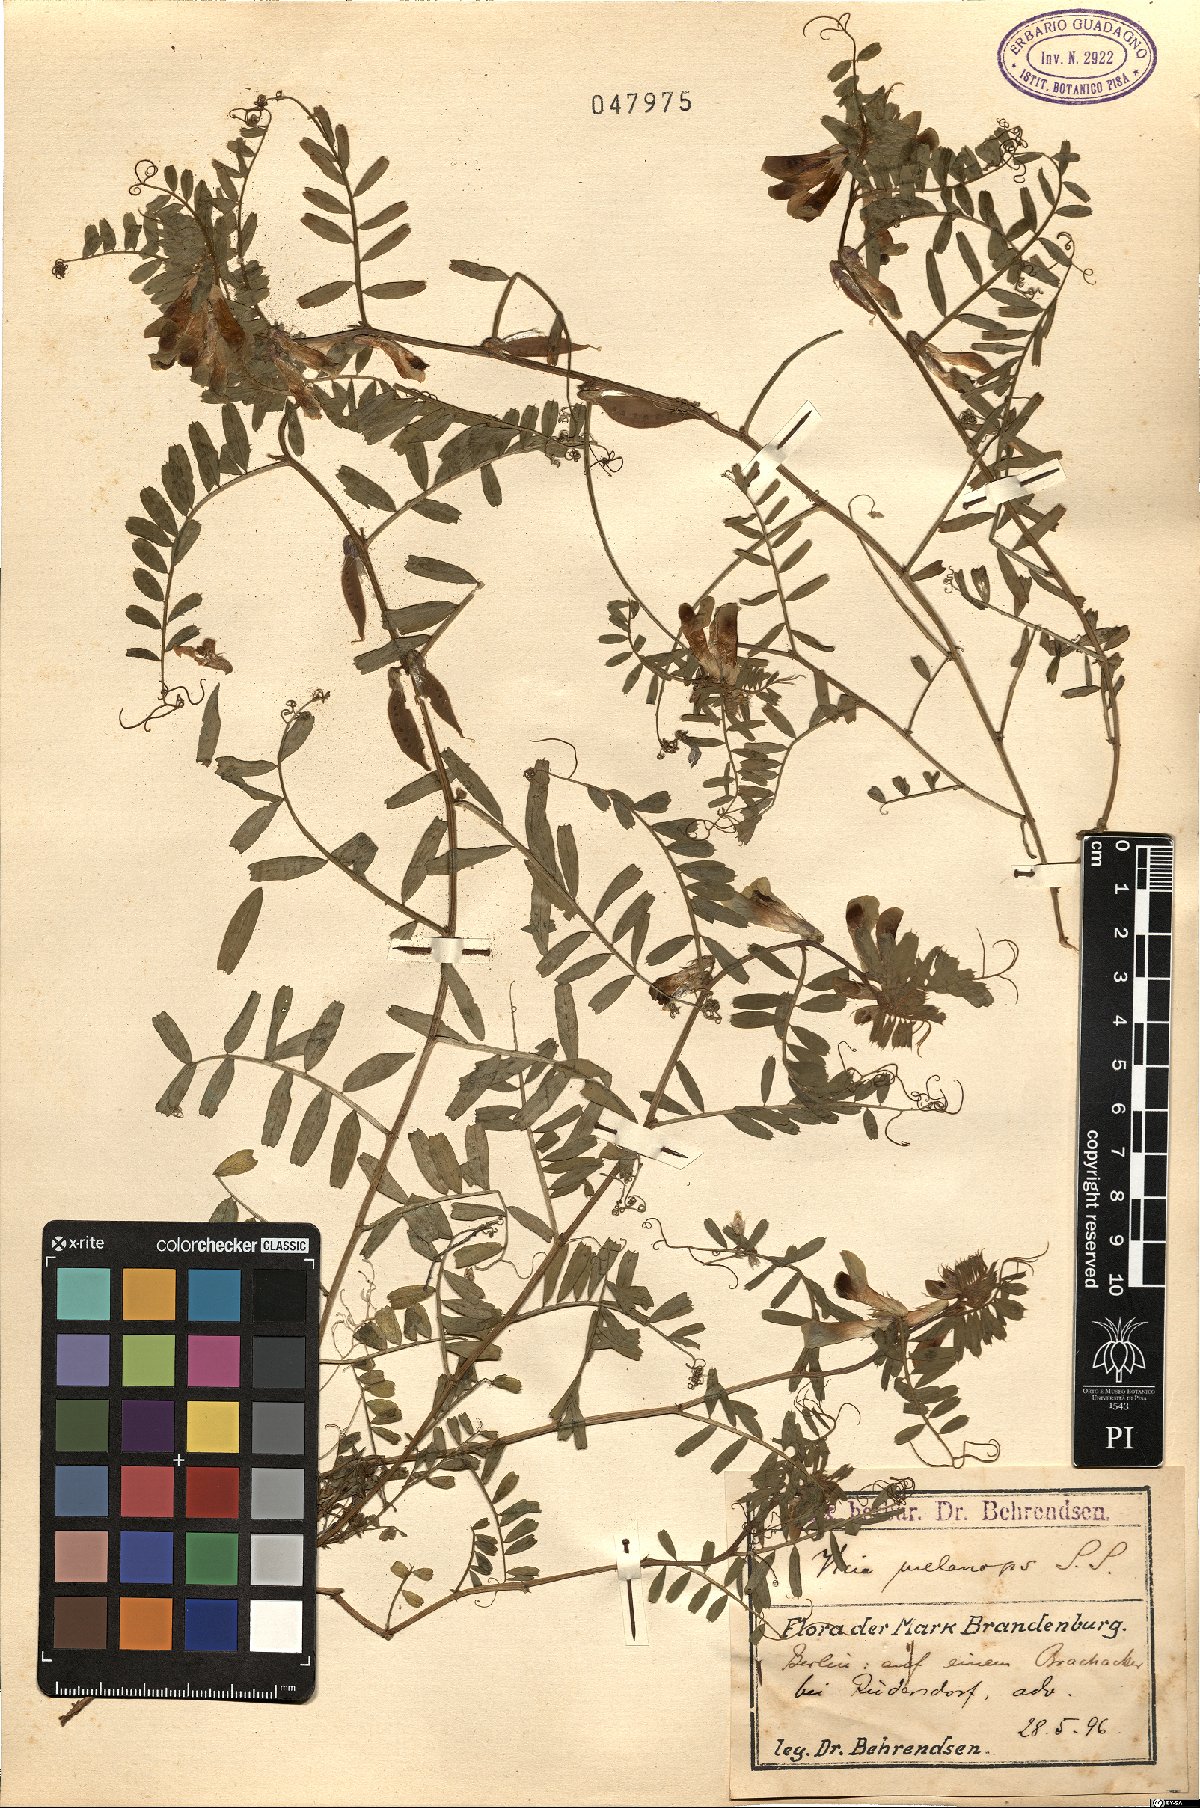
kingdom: Plantae
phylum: Tracheophyta
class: Magnoliopsida
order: Fabales
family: Fabaceae
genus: Vicia
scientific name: Vicia melanops
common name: Black-eyed vetch
